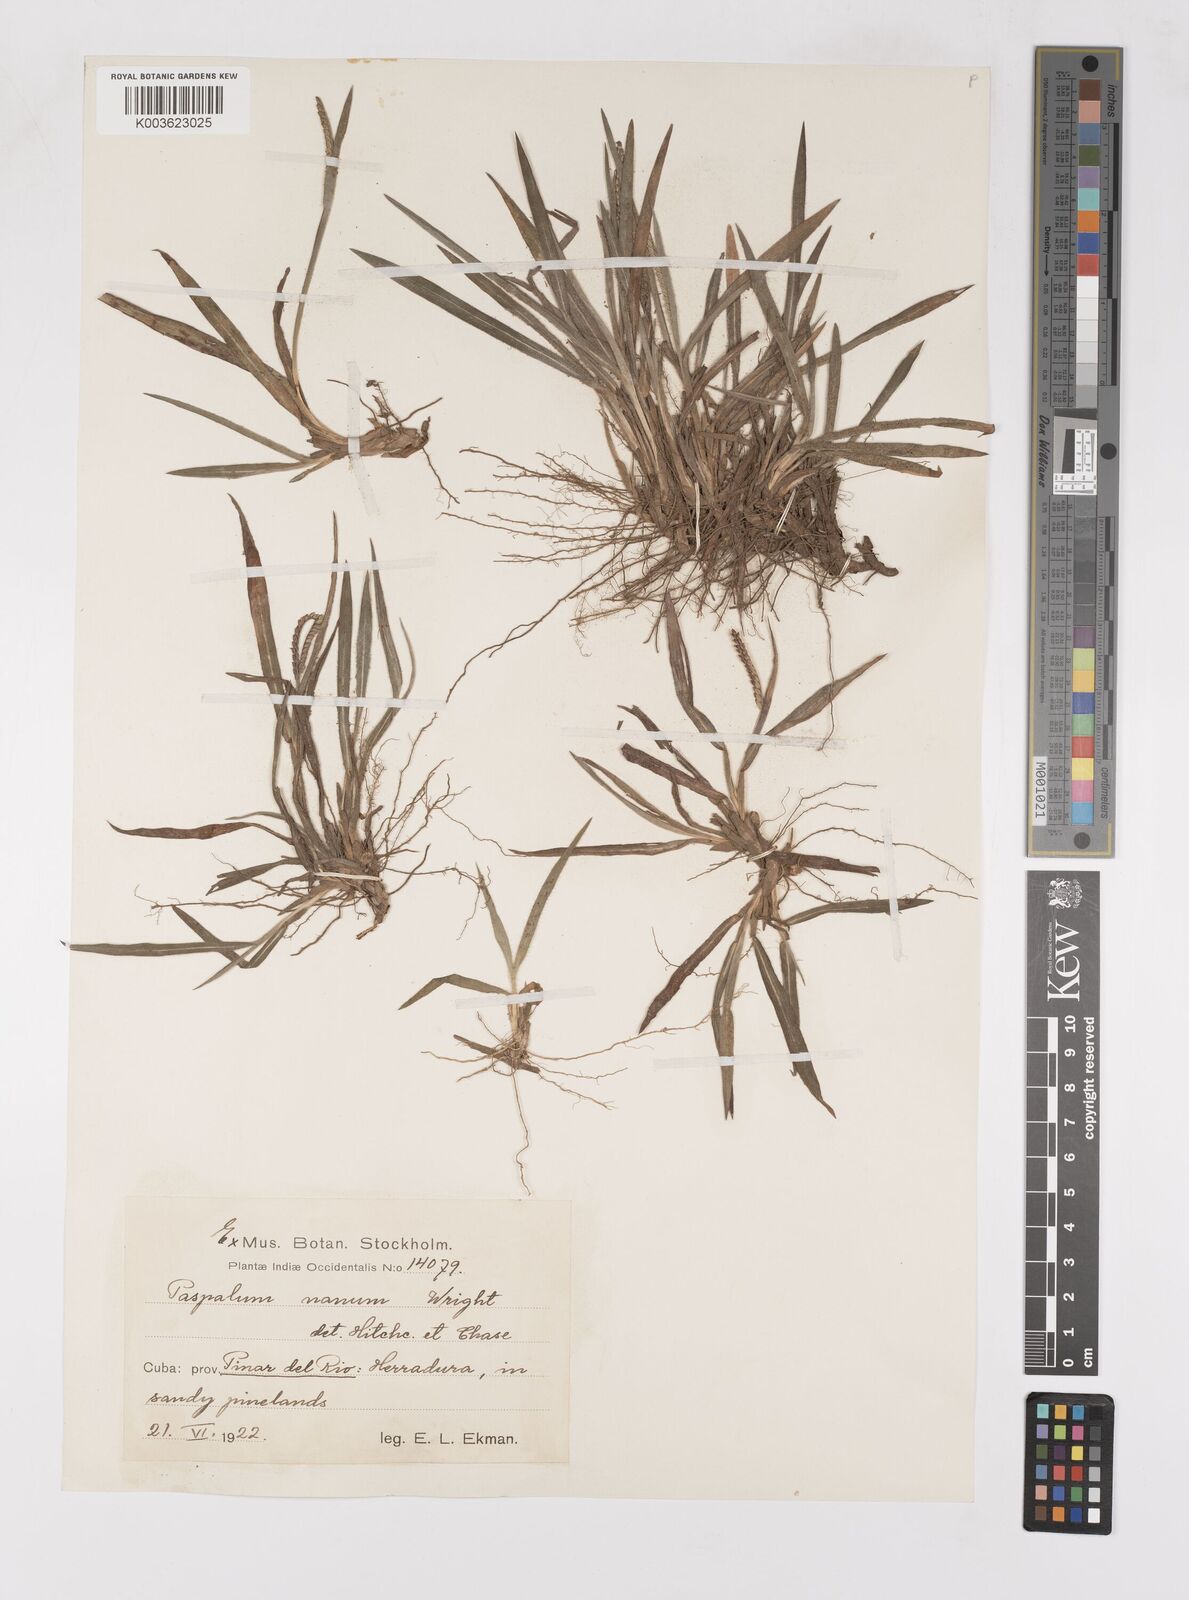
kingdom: Plantae
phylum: Tracheophyta
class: Liliopsida
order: Poales
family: Poaceae
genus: Paspalum
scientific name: Paspalum nanum
